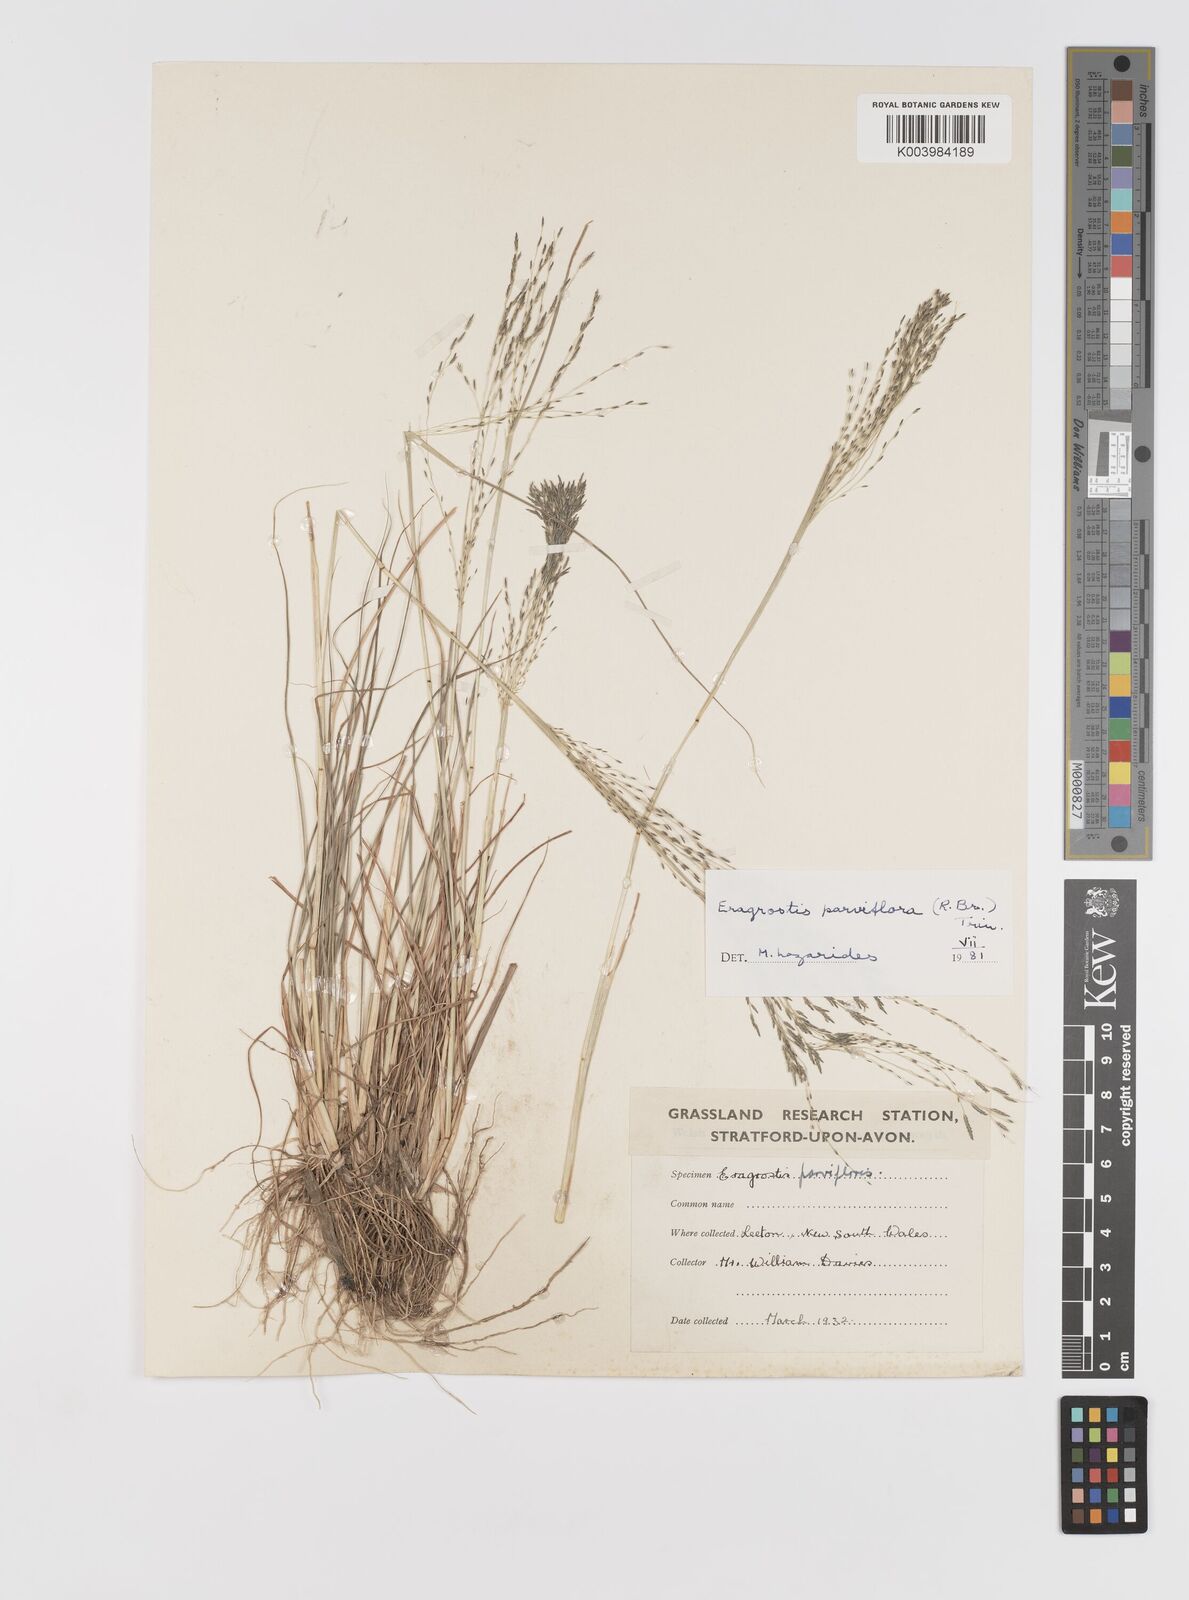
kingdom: Plantae
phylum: Tracheophyta
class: Liliopsida
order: Poales
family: Poaceae
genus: Eragrostis
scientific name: Eragrostis parviflora
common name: Weeping love-grass
